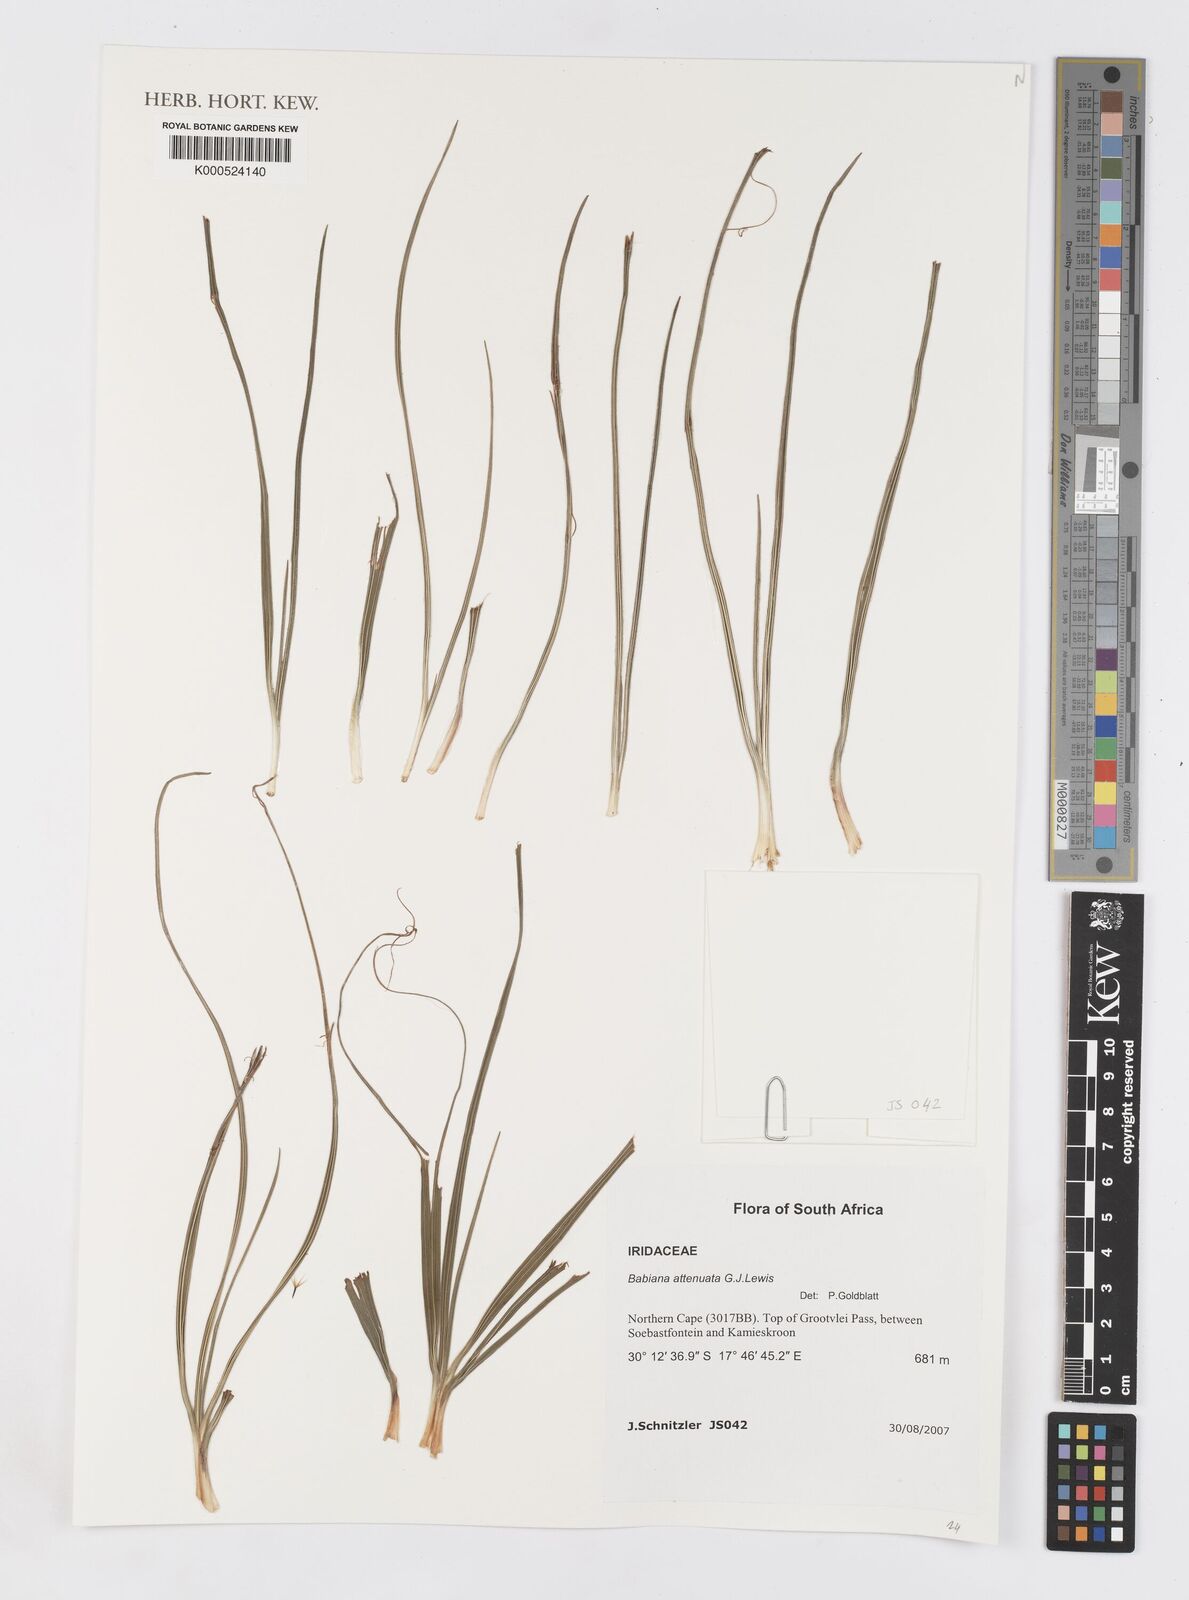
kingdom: Plantae
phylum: Tracheophyta
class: Liliopsida
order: Asparagales
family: Iridaceae
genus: Babiana
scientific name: Babiana attenuata
